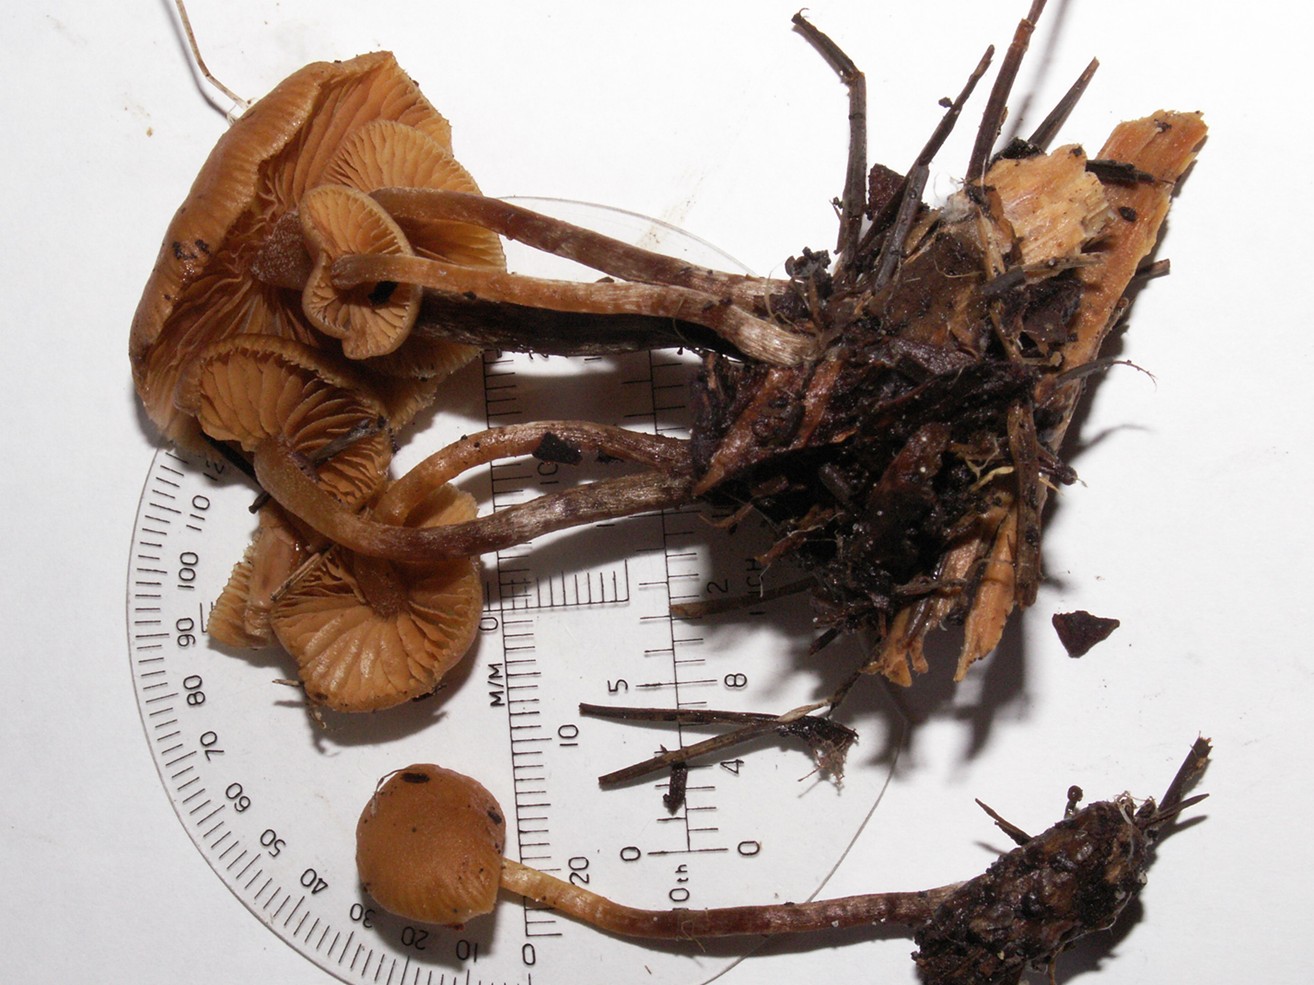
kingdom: Fungi
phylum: Basidiomycota
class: Agaricomycetes
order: Agaricales
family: Hymenogastraceae
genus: Galerina
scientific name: Galerina sideroides
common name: træflis-hjelmhat
